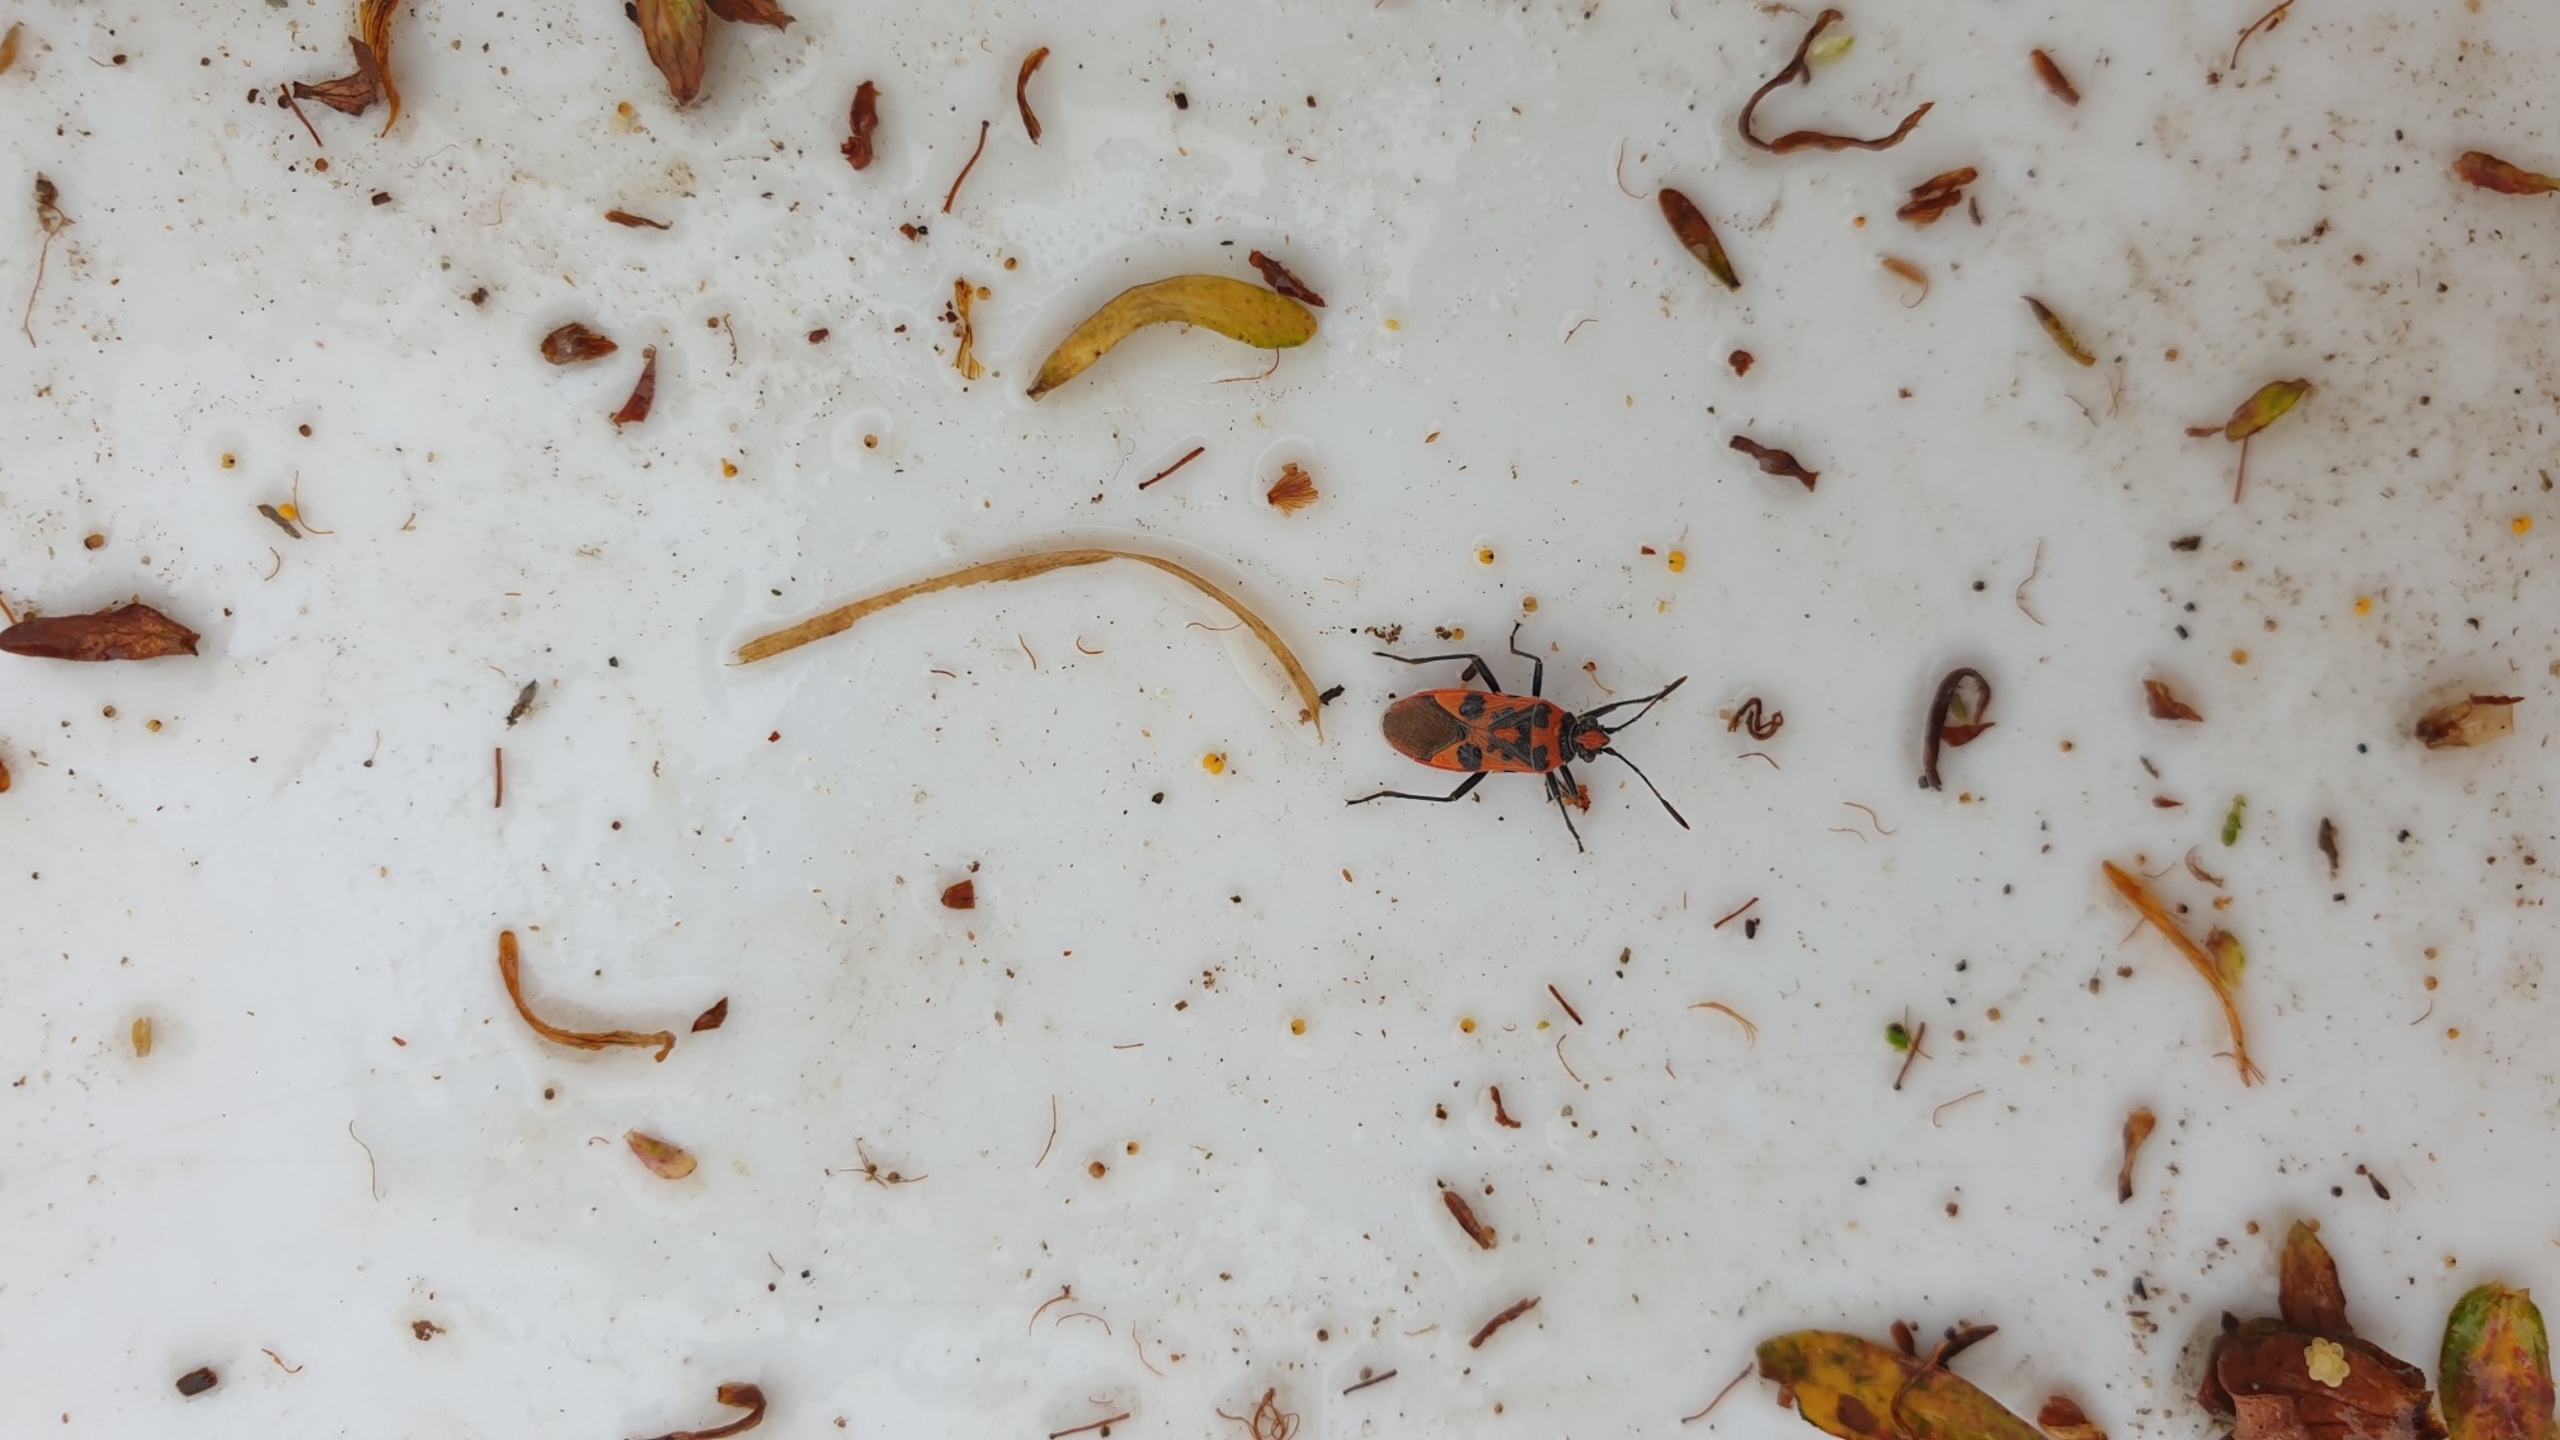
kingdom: Animalia
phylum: Arthropoda
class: Insecta
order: Hemiptera
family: Rhopalidae
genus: Corizus
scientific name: Corizus hyoscyami
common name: Rød kanttæge
